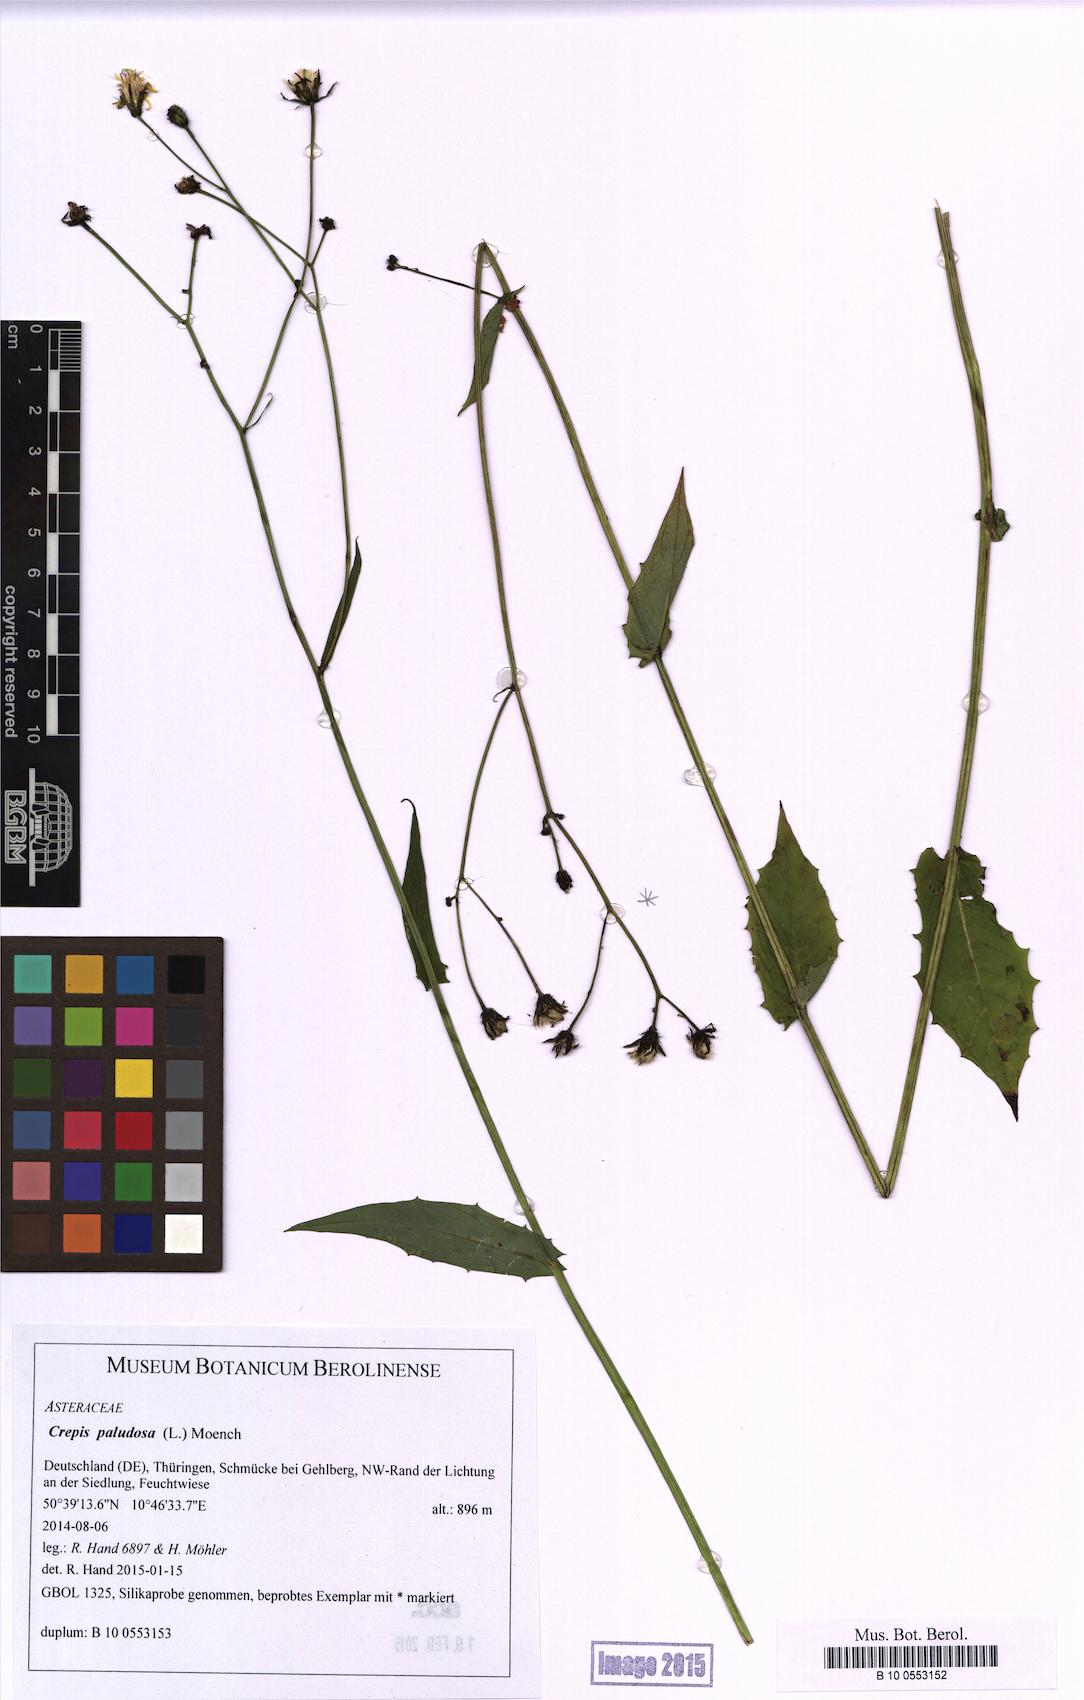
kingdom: Plantae
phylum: Tracheophyta
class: Magnoliopsida
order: Asterales
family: Asteraceae
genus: Crepis
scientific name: Crepis paludosa
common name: Marsh hawk's-beard
